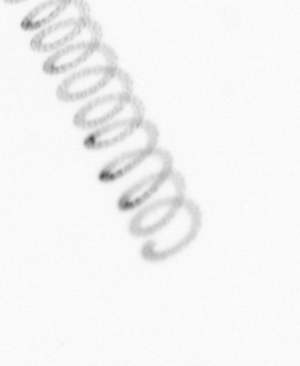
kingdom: Chromista
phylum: Ochrophyta
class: Bacillariophyceae
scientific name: Bacillariophyceae
